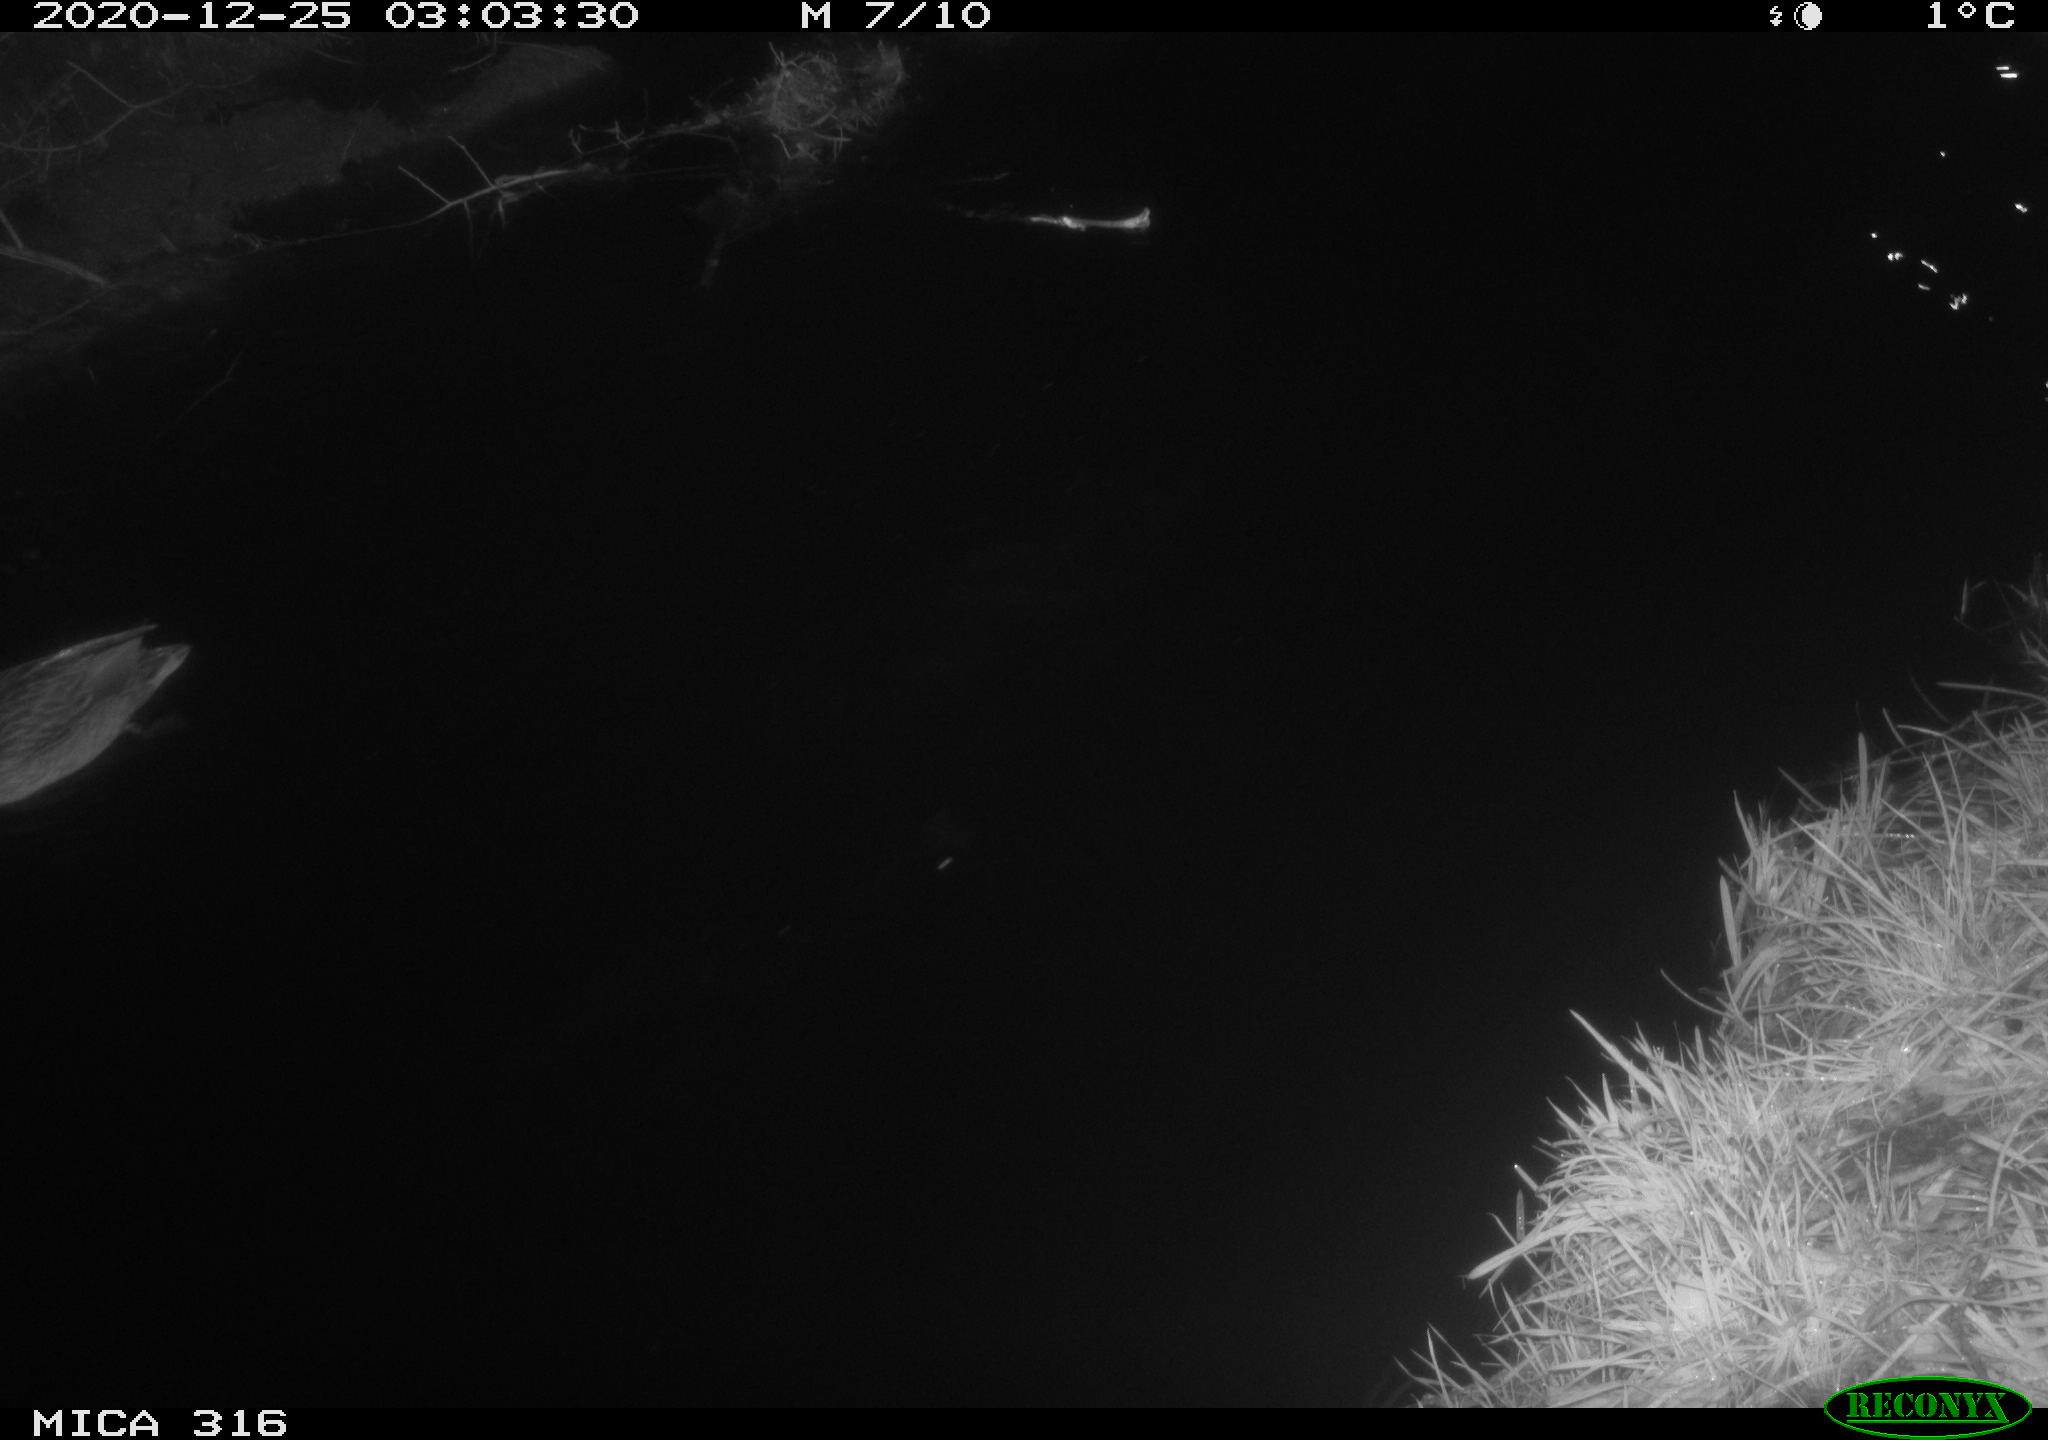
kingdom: Animalia
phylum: Chordata
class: Aves
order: Anseriformes
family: Anatidae
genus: Anas
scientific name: Anas platyrhynchos
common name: Mallard
